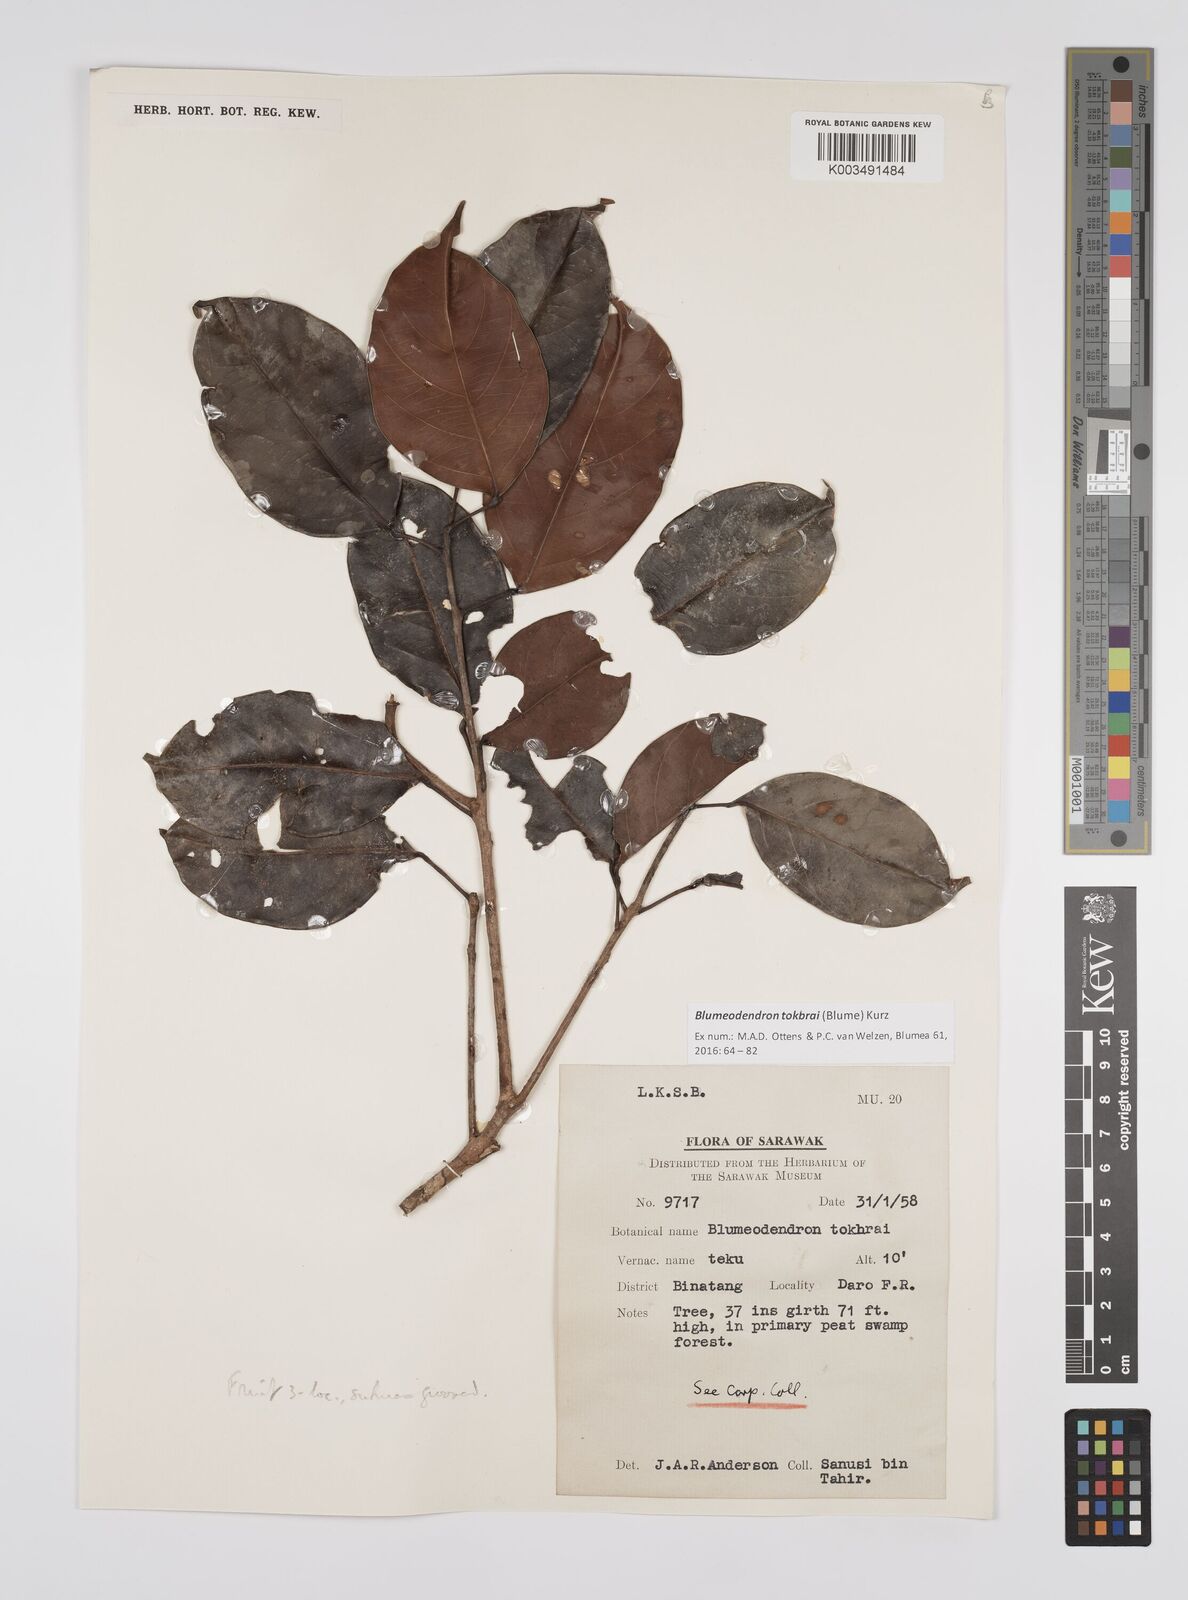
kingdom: Plantae
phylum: Tracheophyta
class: Magnoliopsida
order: Malpighiales
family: Euphorbiaceae
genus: Blumeodendron
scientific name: Blumeodendron tokbrai
